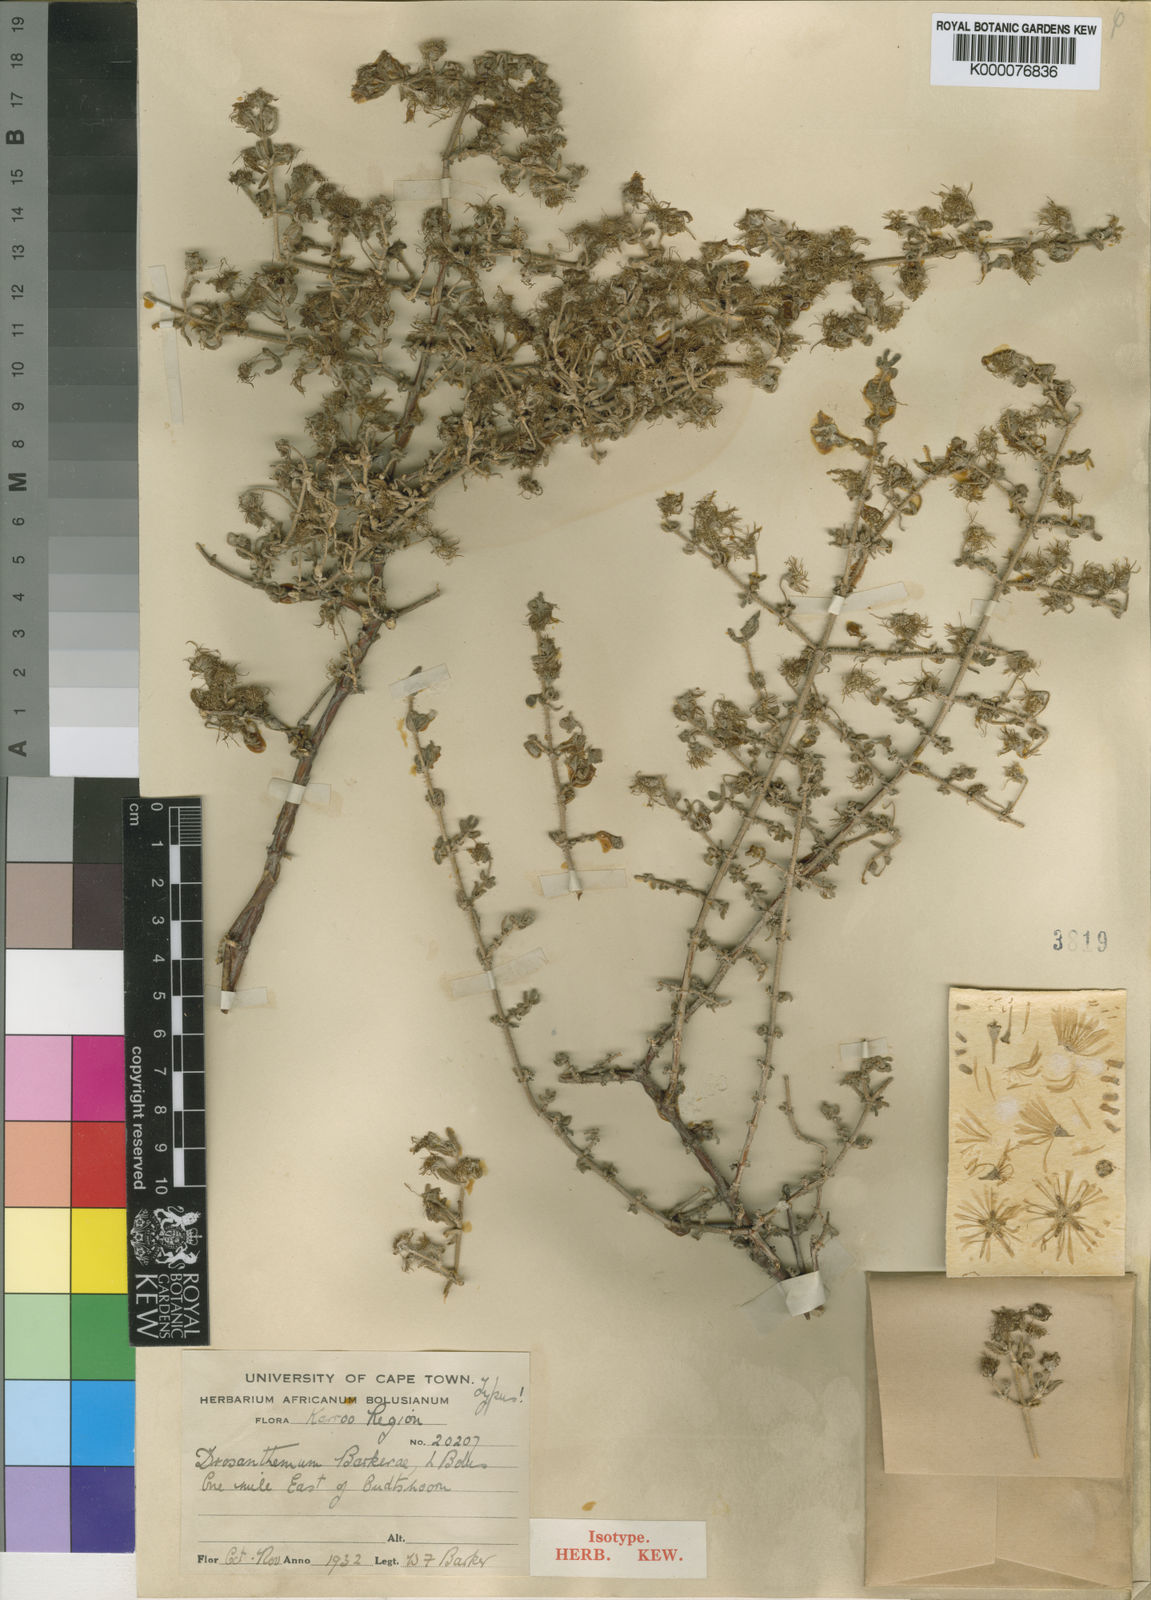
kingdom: Plantae
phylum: Tracheophyta
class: Magnoliopsida
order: Caryophyllales
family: Aizoaceae
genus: Drosanthemum
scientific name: Drosanthemum barkerae
